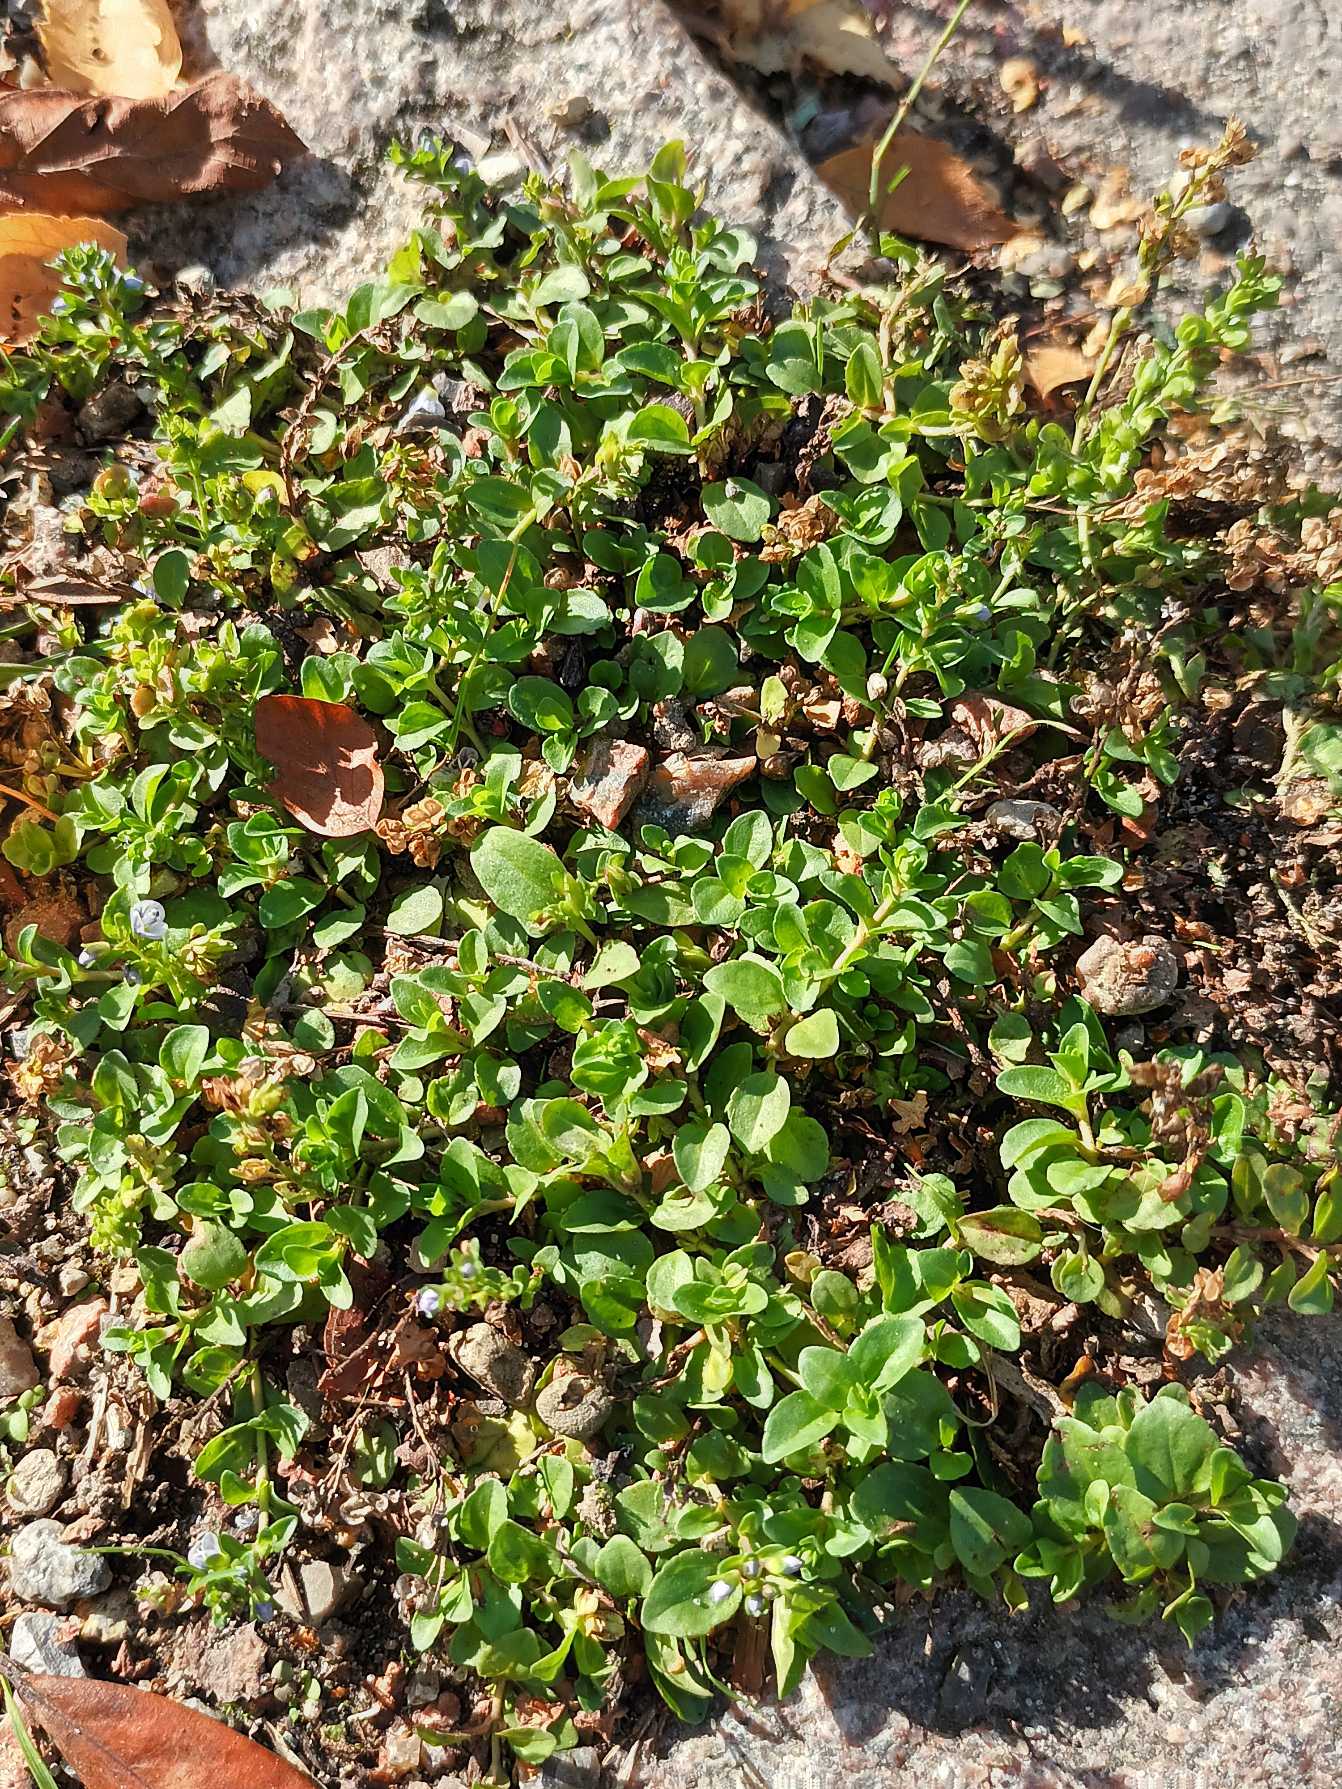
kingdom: Plantae
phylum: Tracheophyta
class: Magnoliopsida
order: Lamiales
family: Plantaginaceae
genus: Veronica
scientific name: Veronica serpyllifolia
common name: Glat ærenpris
